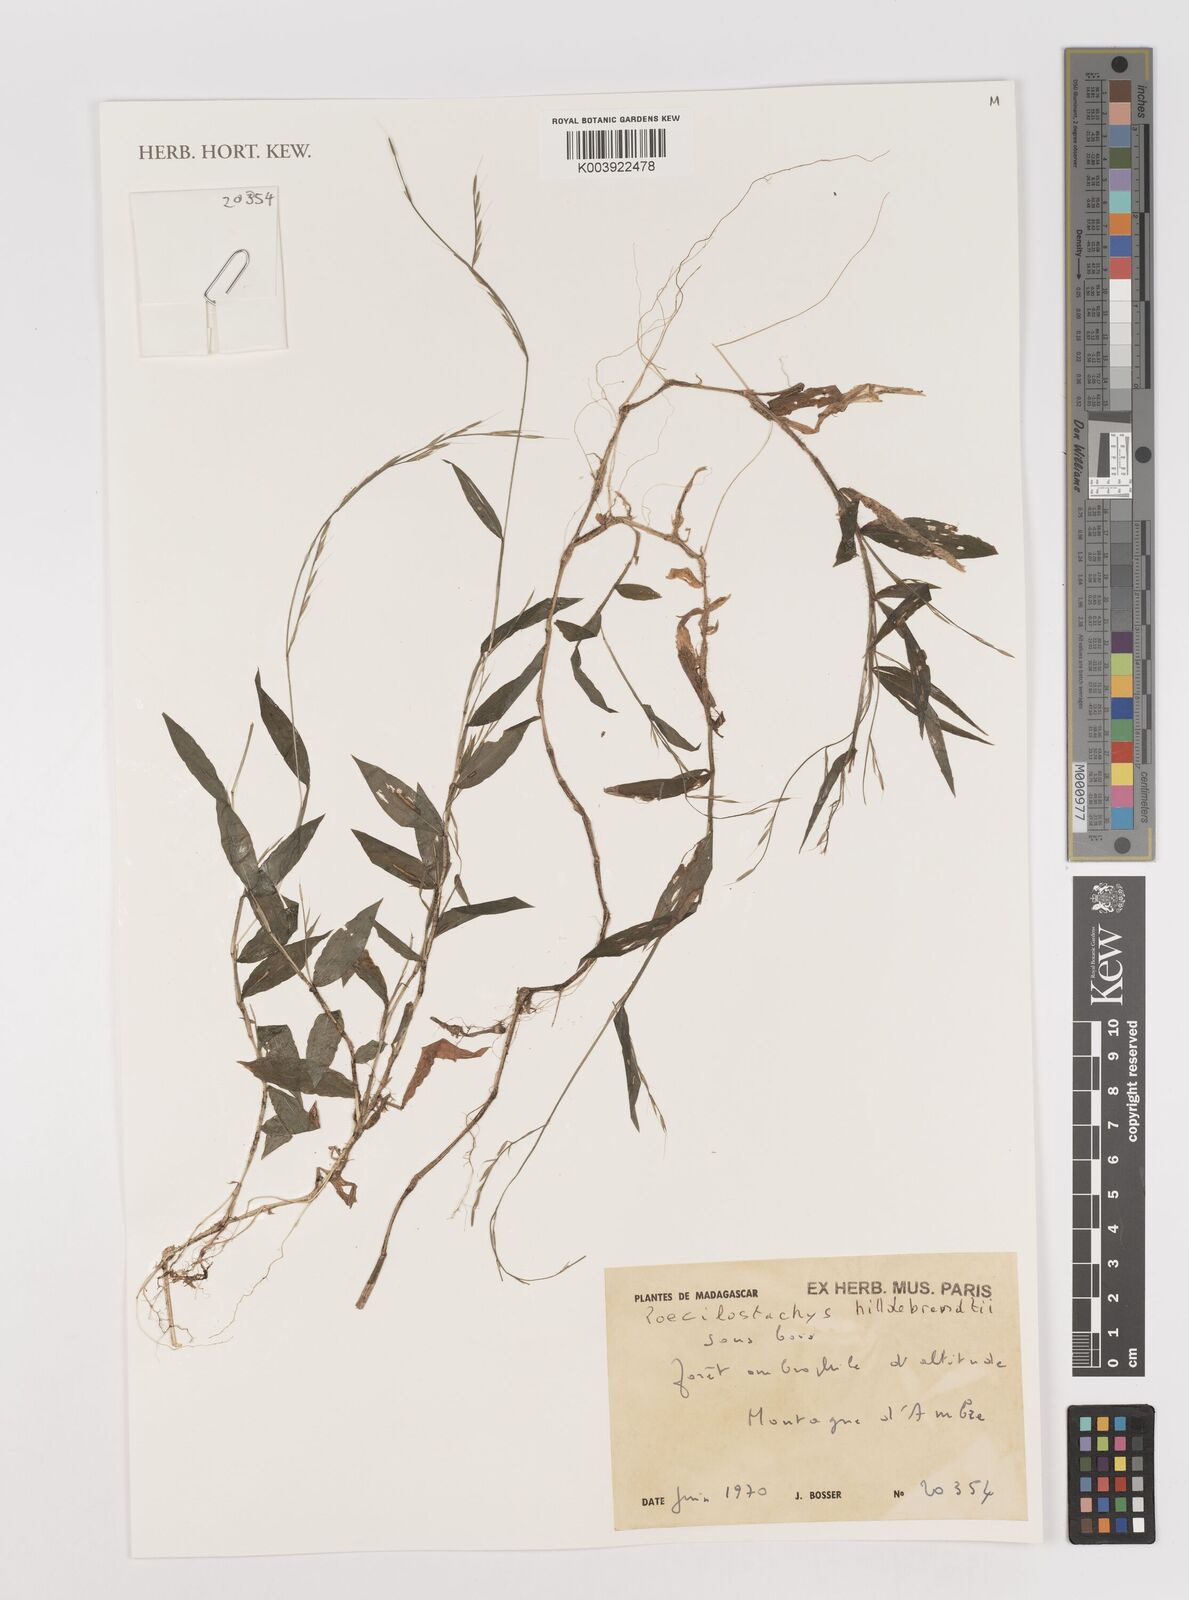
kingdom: Plantae
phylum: Tracheophyta
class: Liliopsida
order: Poales
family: Poaceae
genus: Poecilostachys
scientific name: Poecilostachys hildebrandtii
